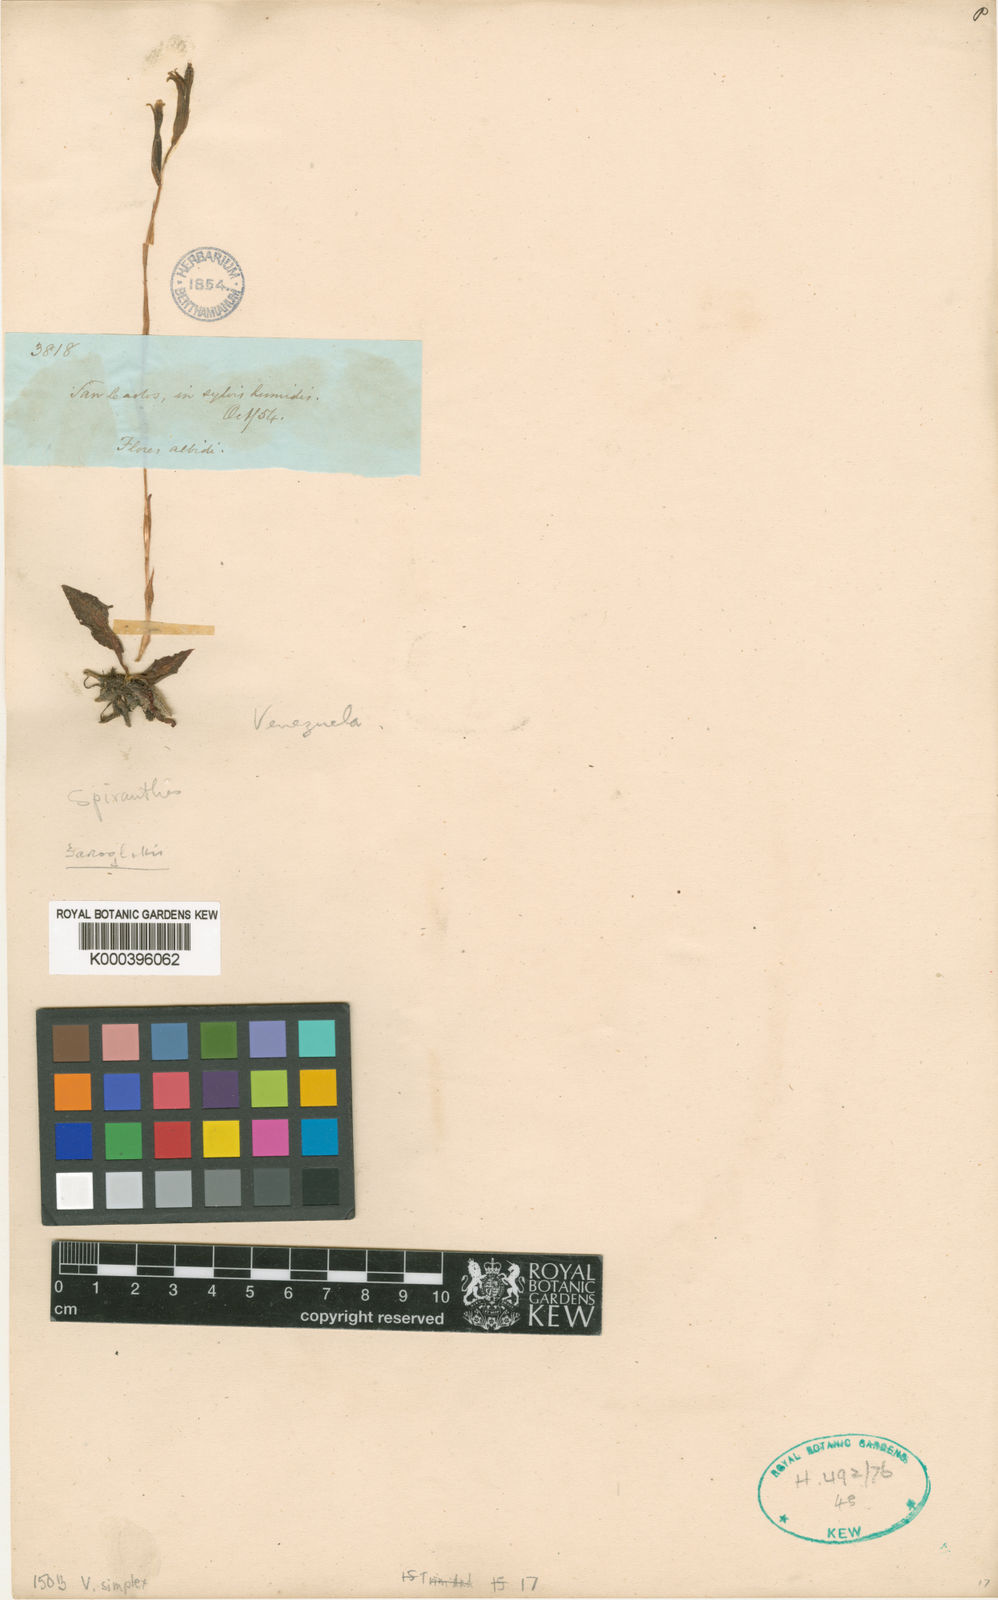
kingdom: Plantae
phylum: Tracheophyta
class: Liliopsida
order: Asparagales
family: Orchidaceae
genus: Veyretia
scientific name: Veyretia simplex
